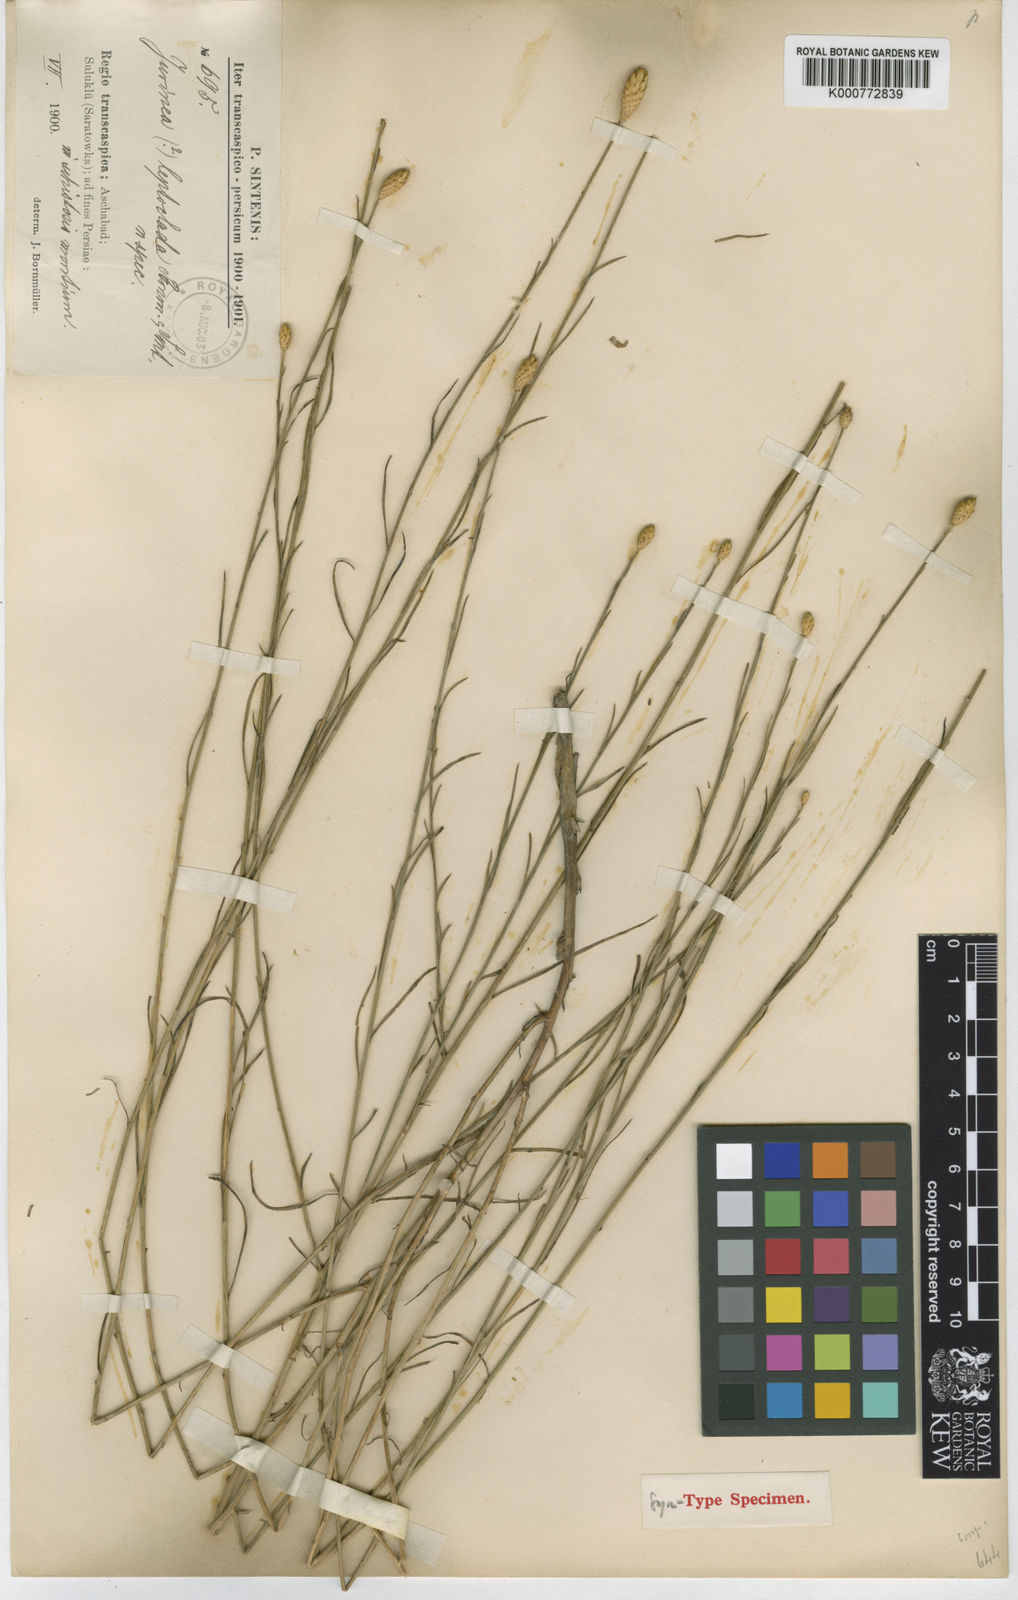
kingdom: Plantae
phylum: Tracheophyta
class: Magnoliopsida
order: Asterales
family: Asteraceae
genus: Klasea
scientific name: Klasea leptoclada
